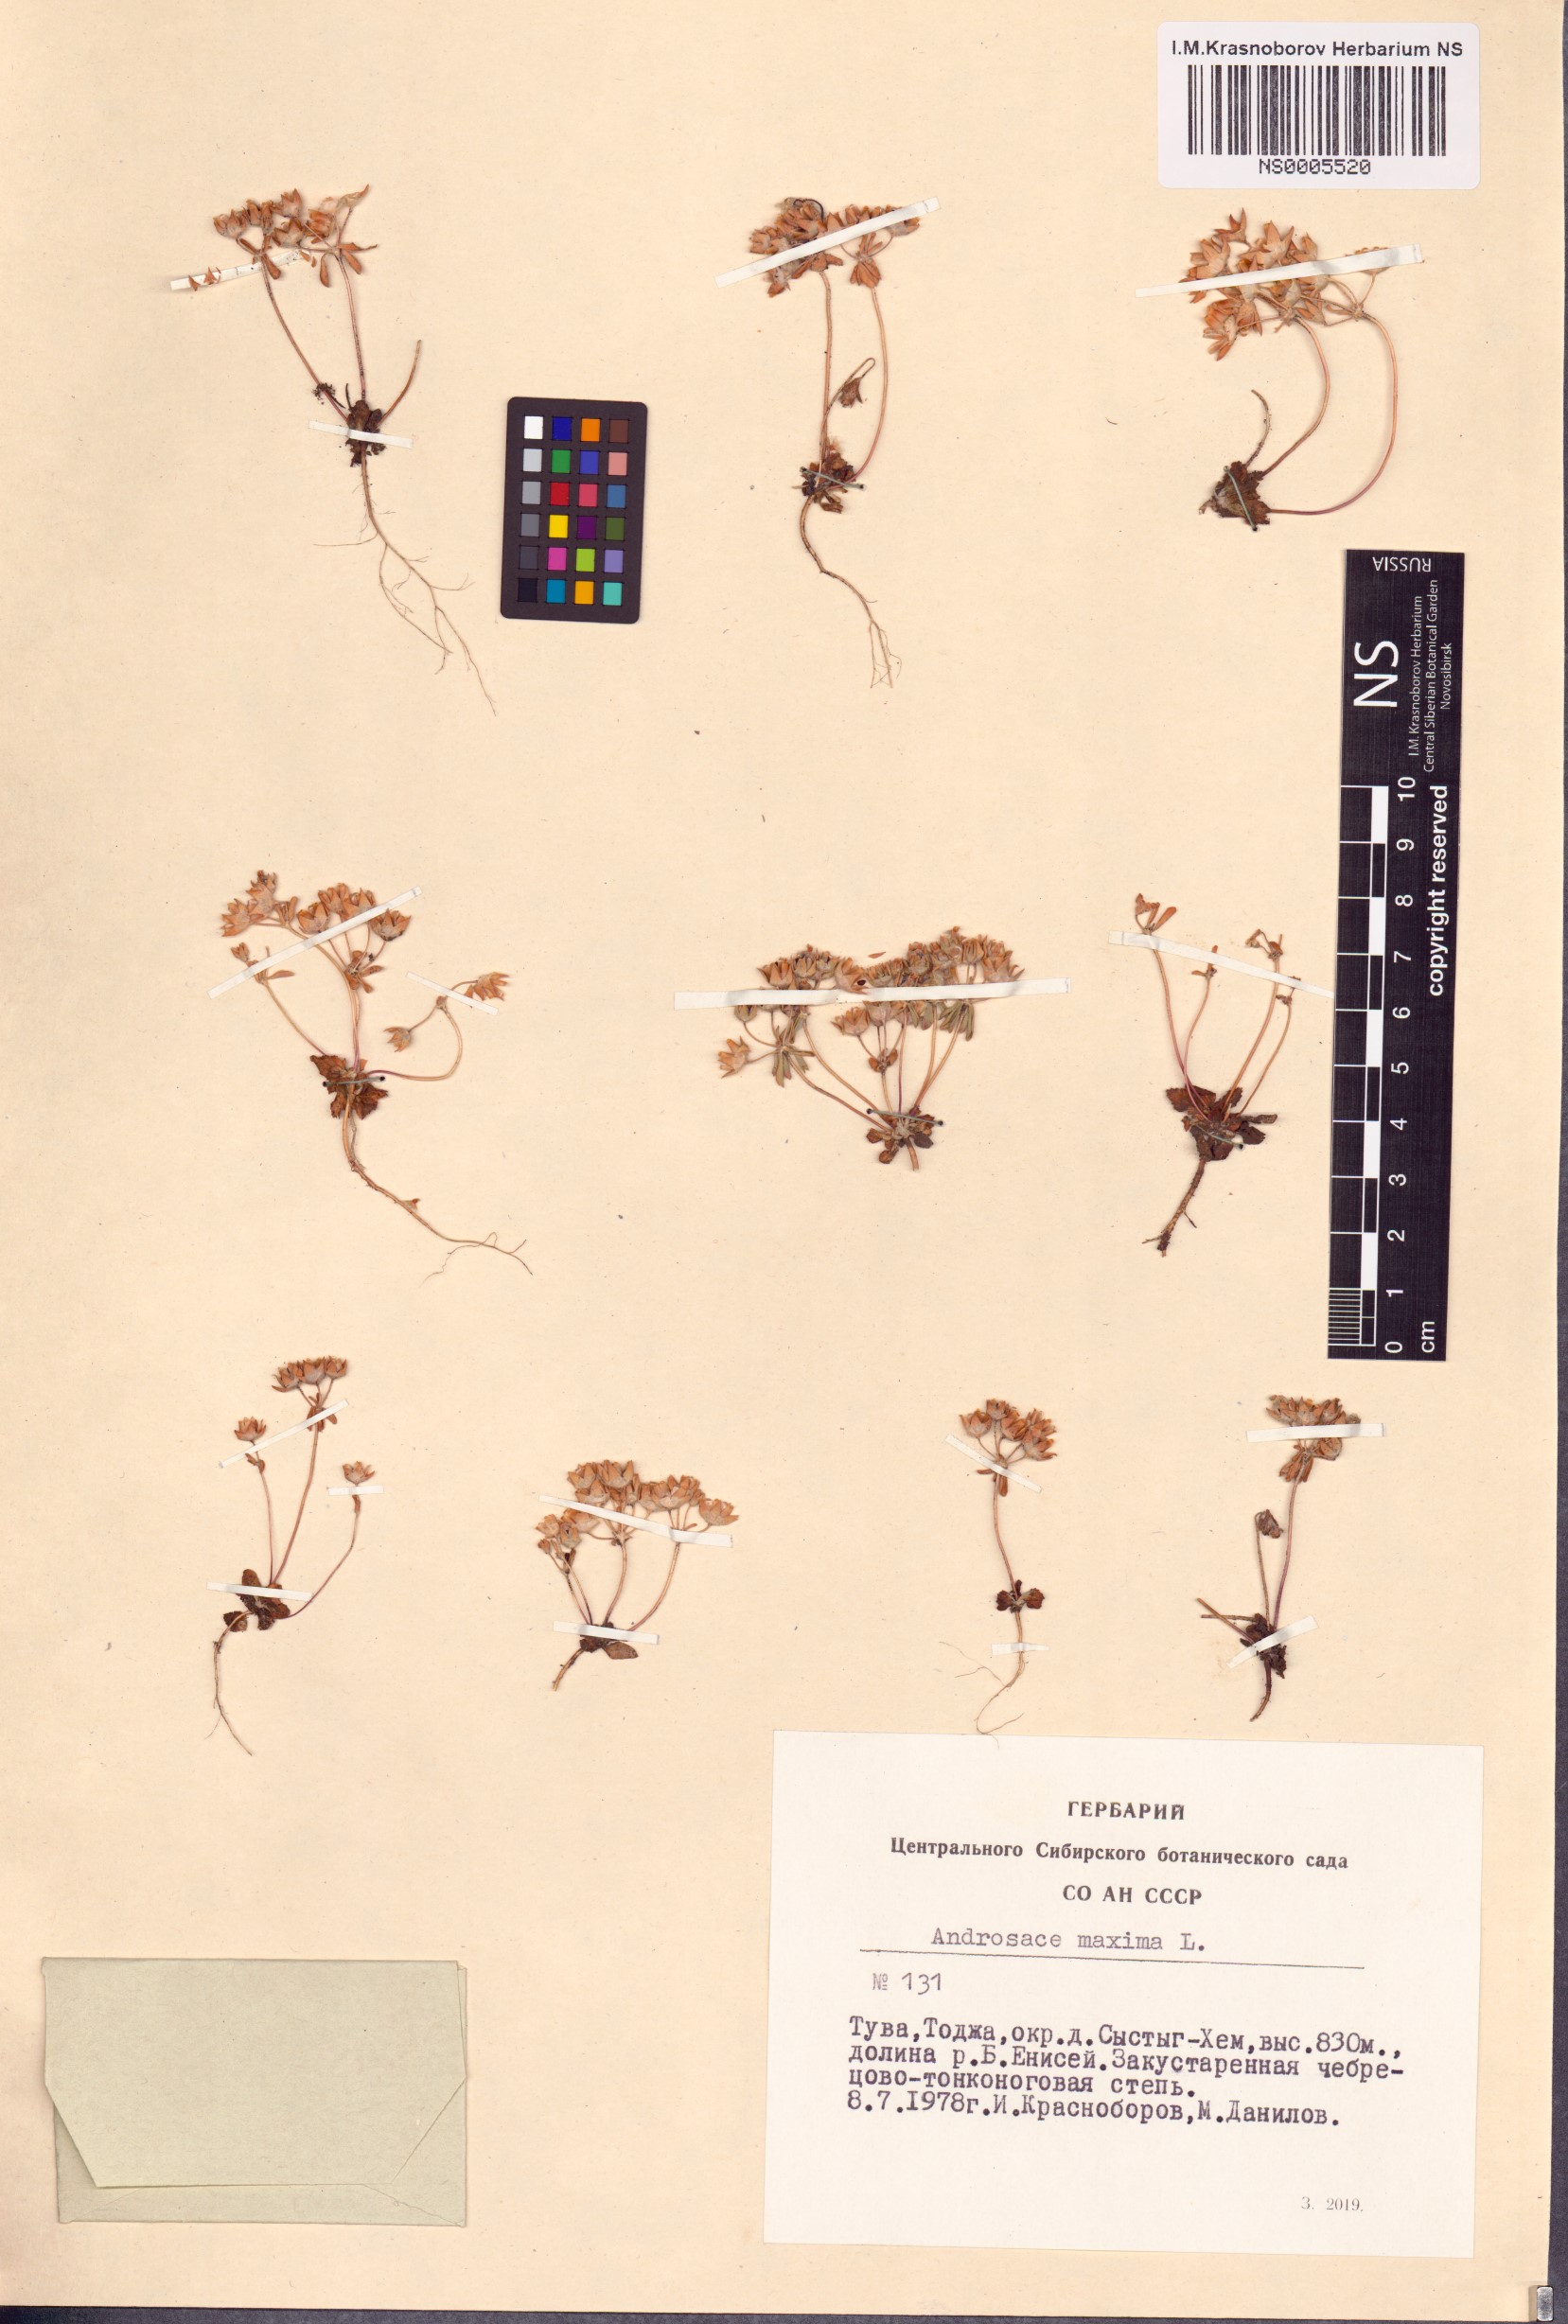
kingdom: Plantae
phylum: Tracheophyta
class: Magnoliopsida
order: Ericales
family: Primulaceae
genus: Androsace
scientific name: Androsace maxima
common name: Annual androsace
